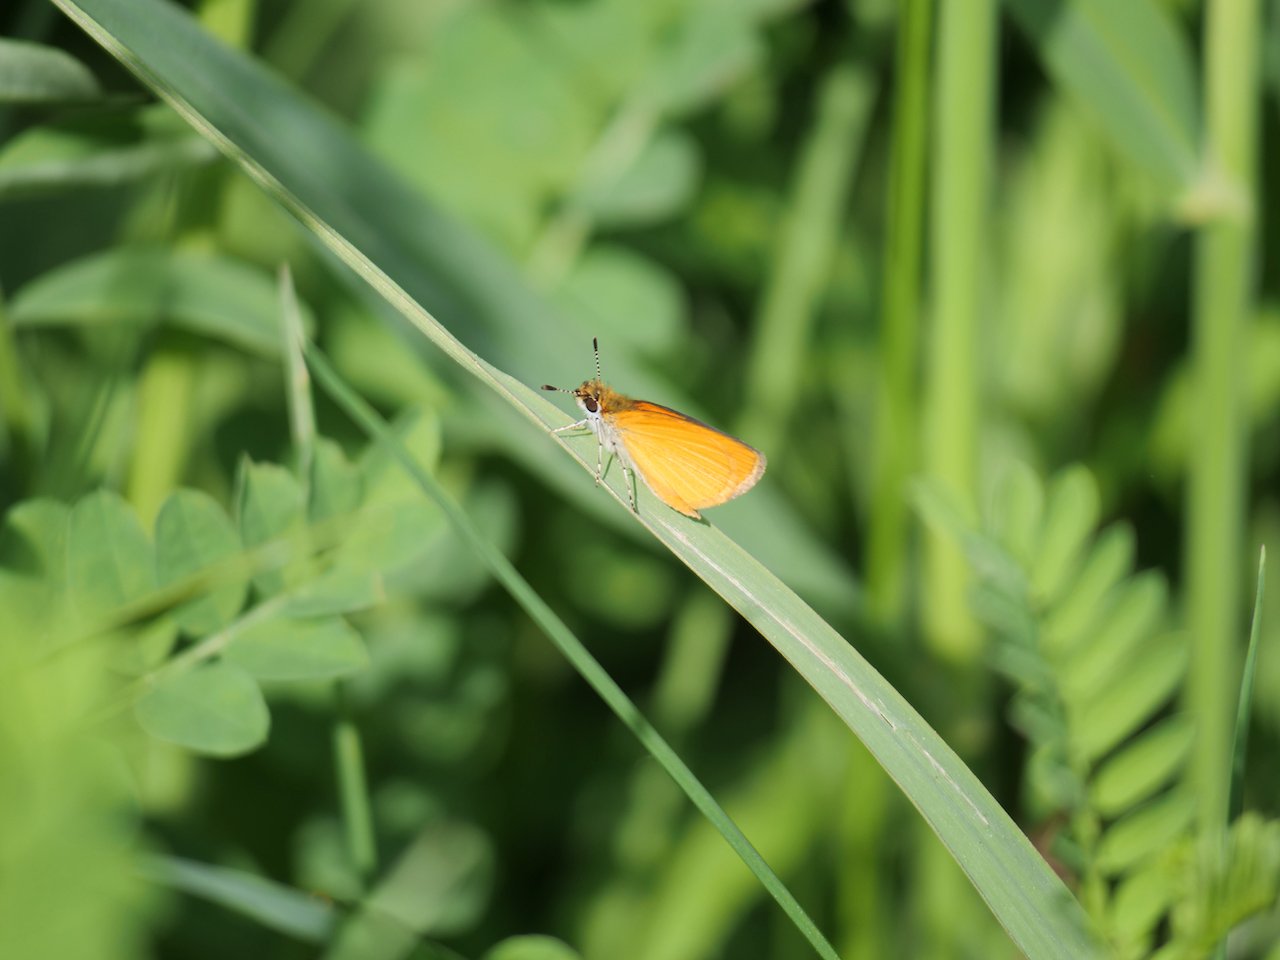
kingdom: Animalia
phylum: Arthropoda
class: Insecta
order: Lepidoptera
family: Hesperiidae
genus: Ancyloxypha
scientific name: Ancyloxypha numitor
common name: Least Skipper
